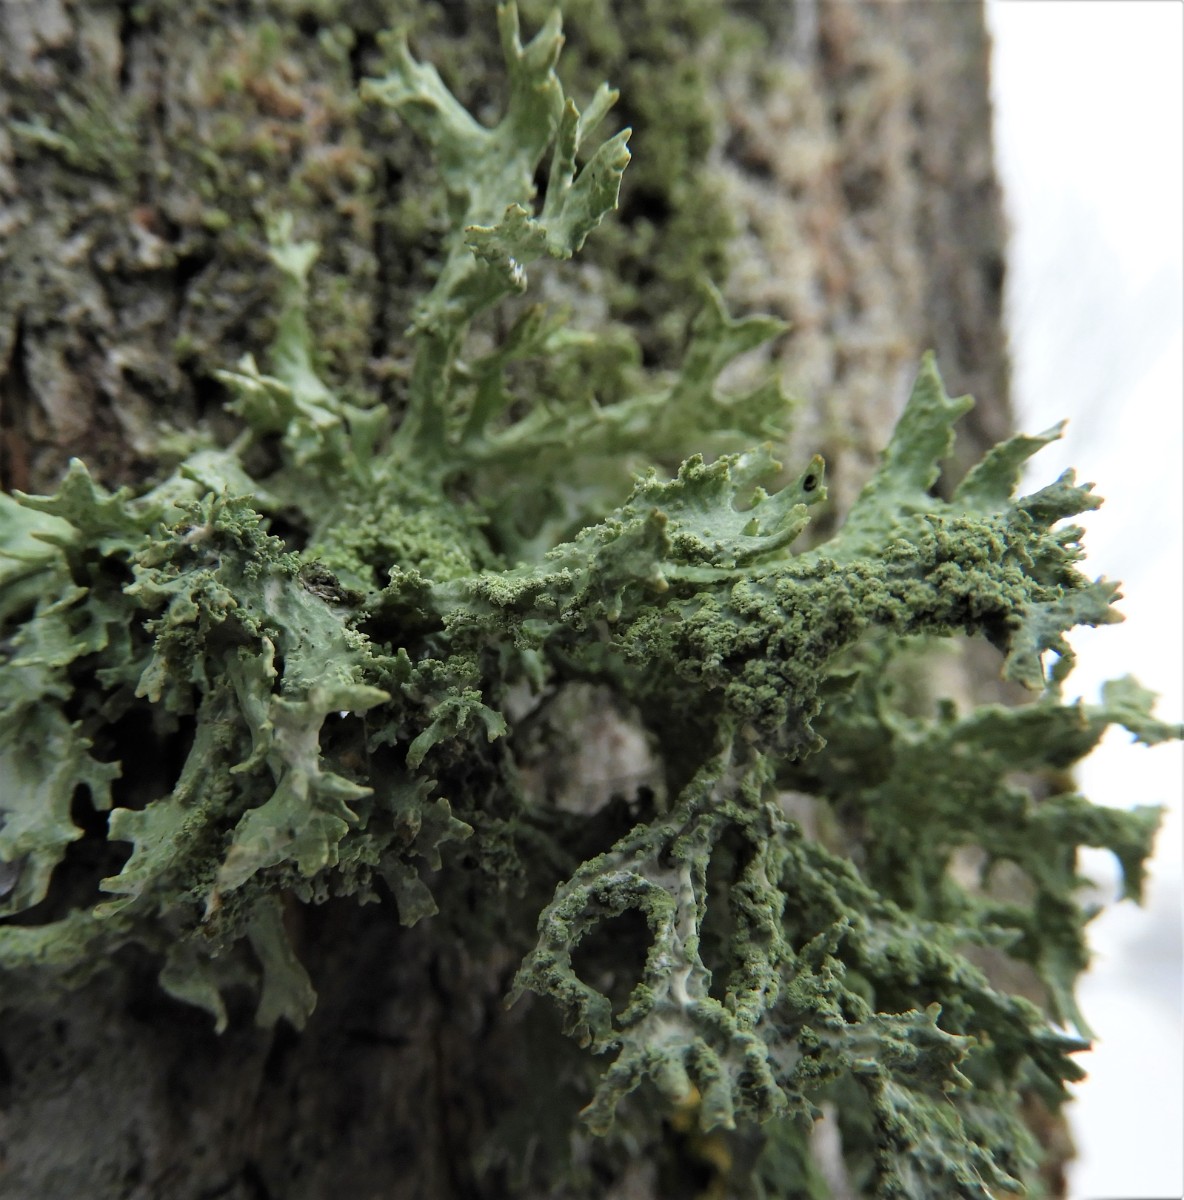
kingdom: Fungi
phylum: Ascomycota
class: Lecanoromycetes
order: Lecanorales
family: Parmeliaceae
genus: Evernia
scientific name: Evernia prunastri
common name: almindelig slåenlav
